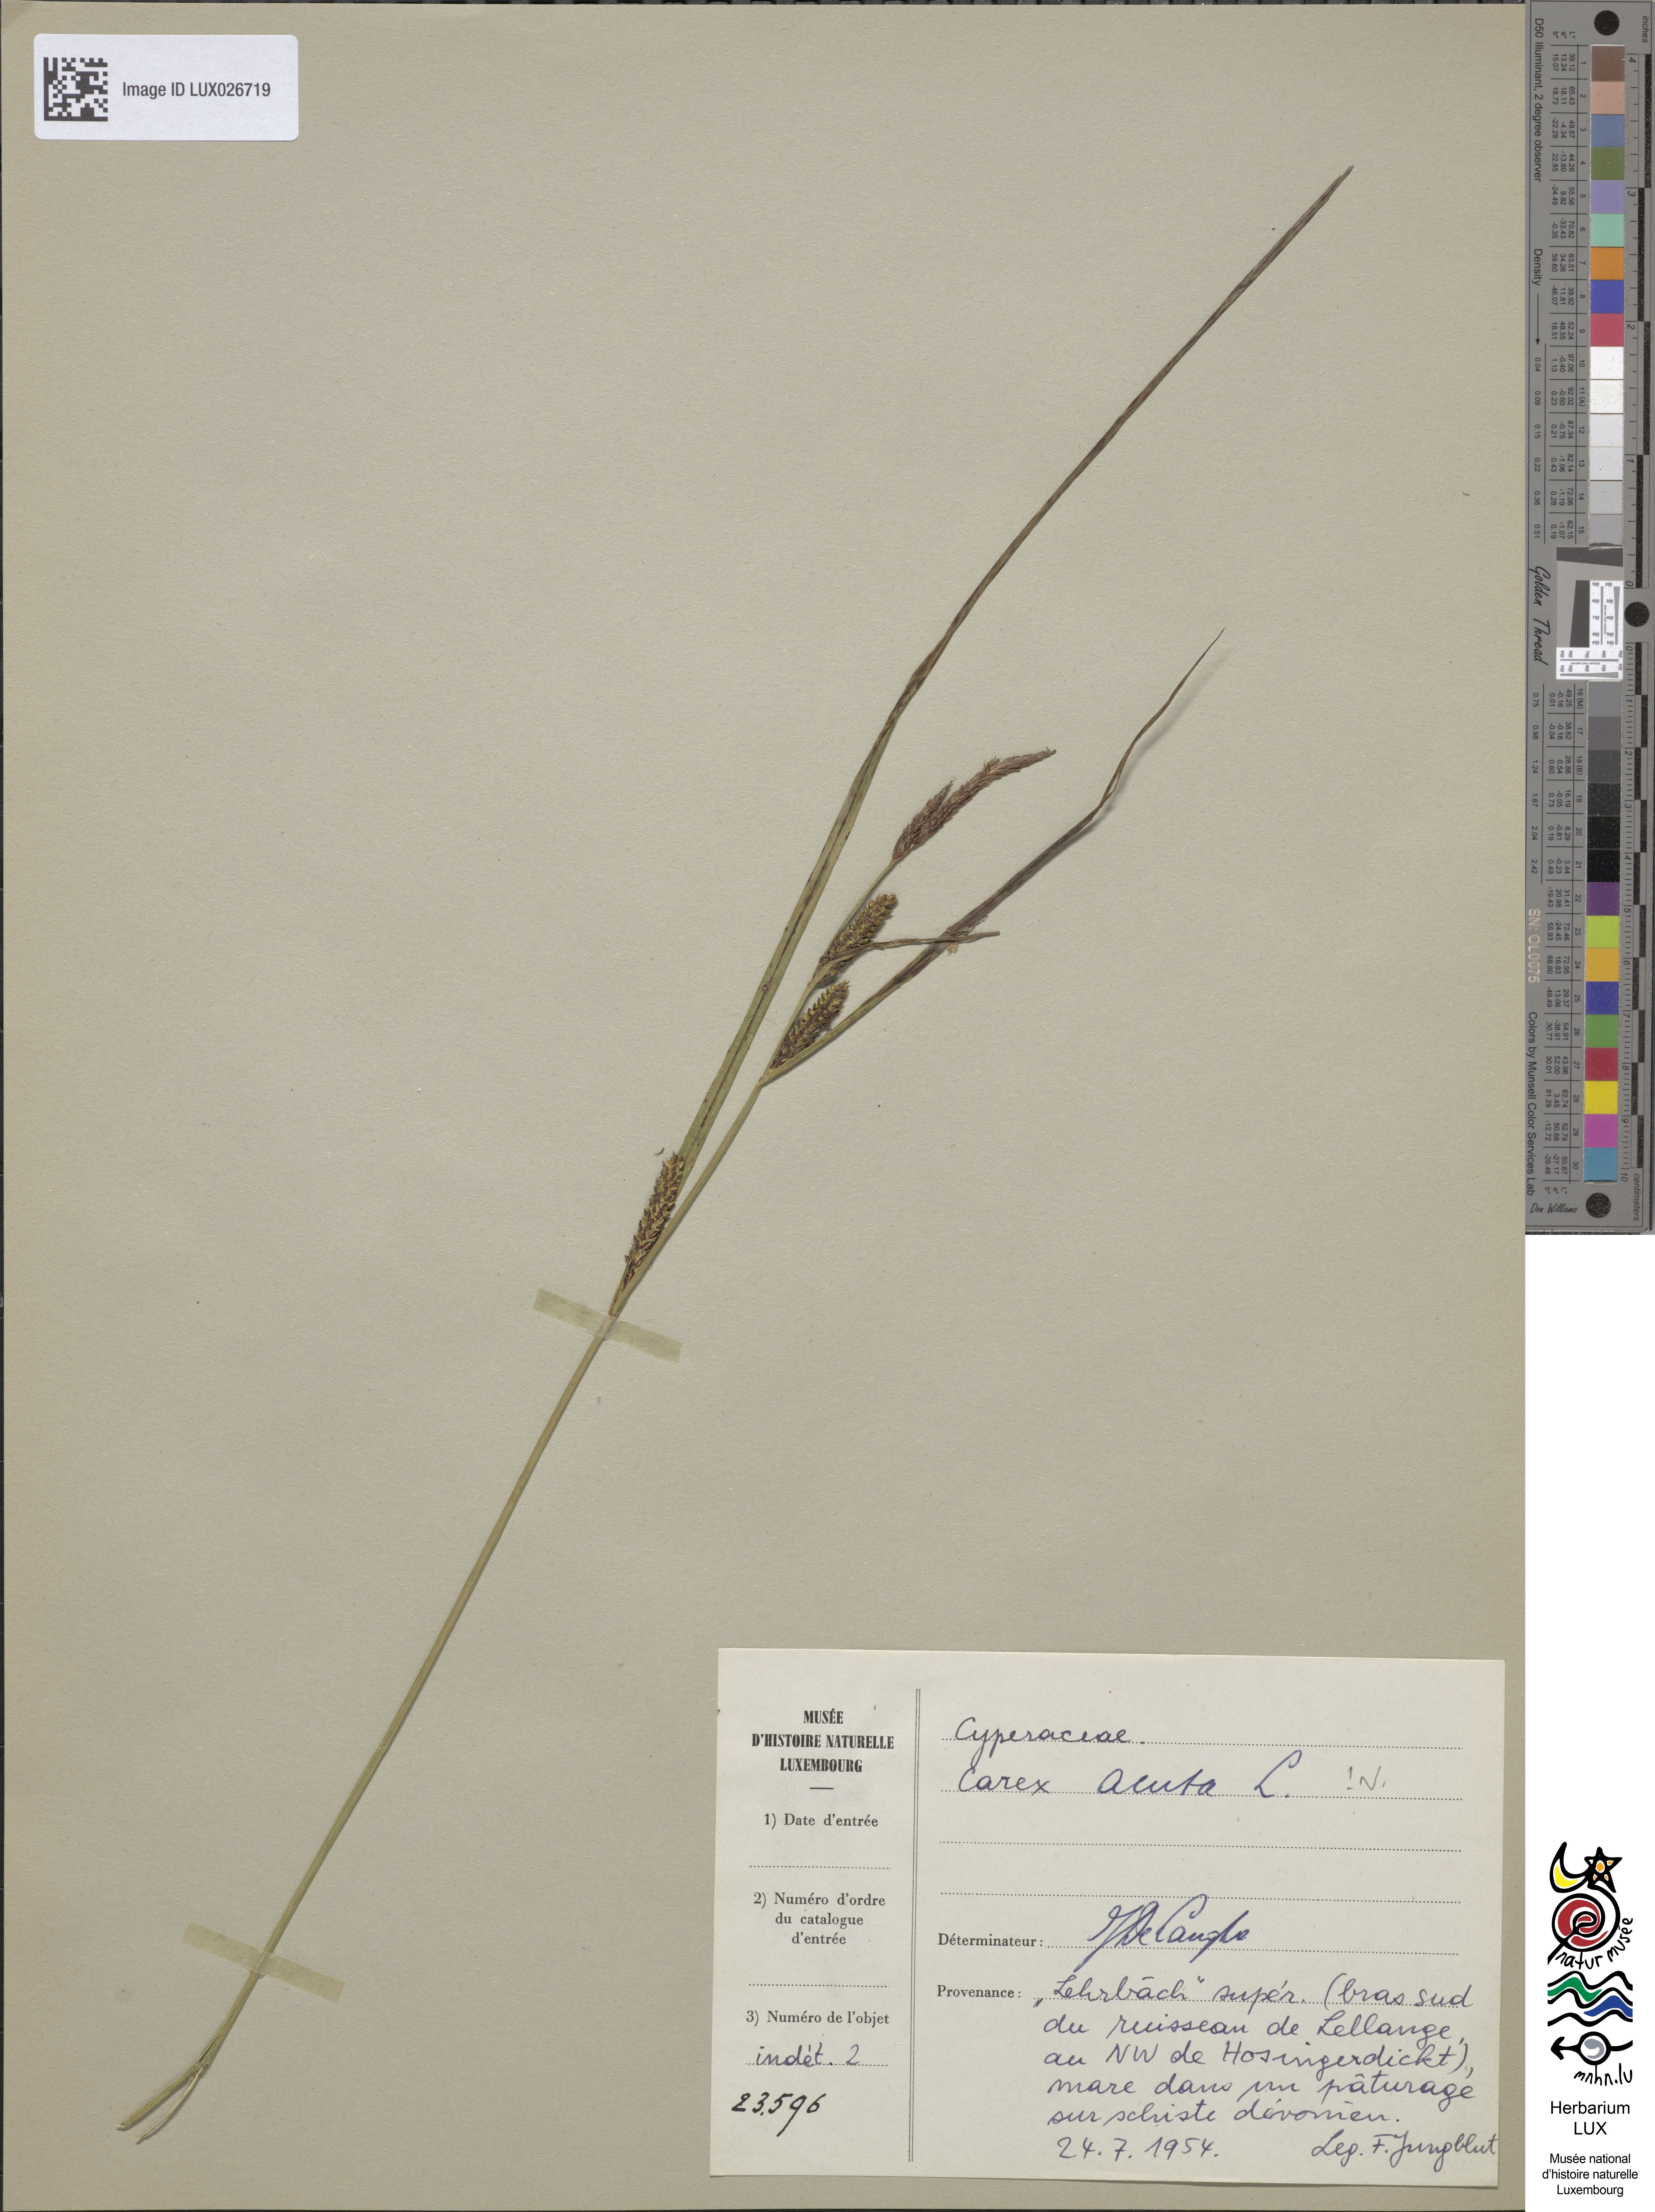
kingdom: Plantae
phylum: Tracheophyta
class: Liliopsida
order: Poales
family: Cyperaceae
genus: Carex
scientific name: Carex acuta
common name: Slender tufted-sedge
